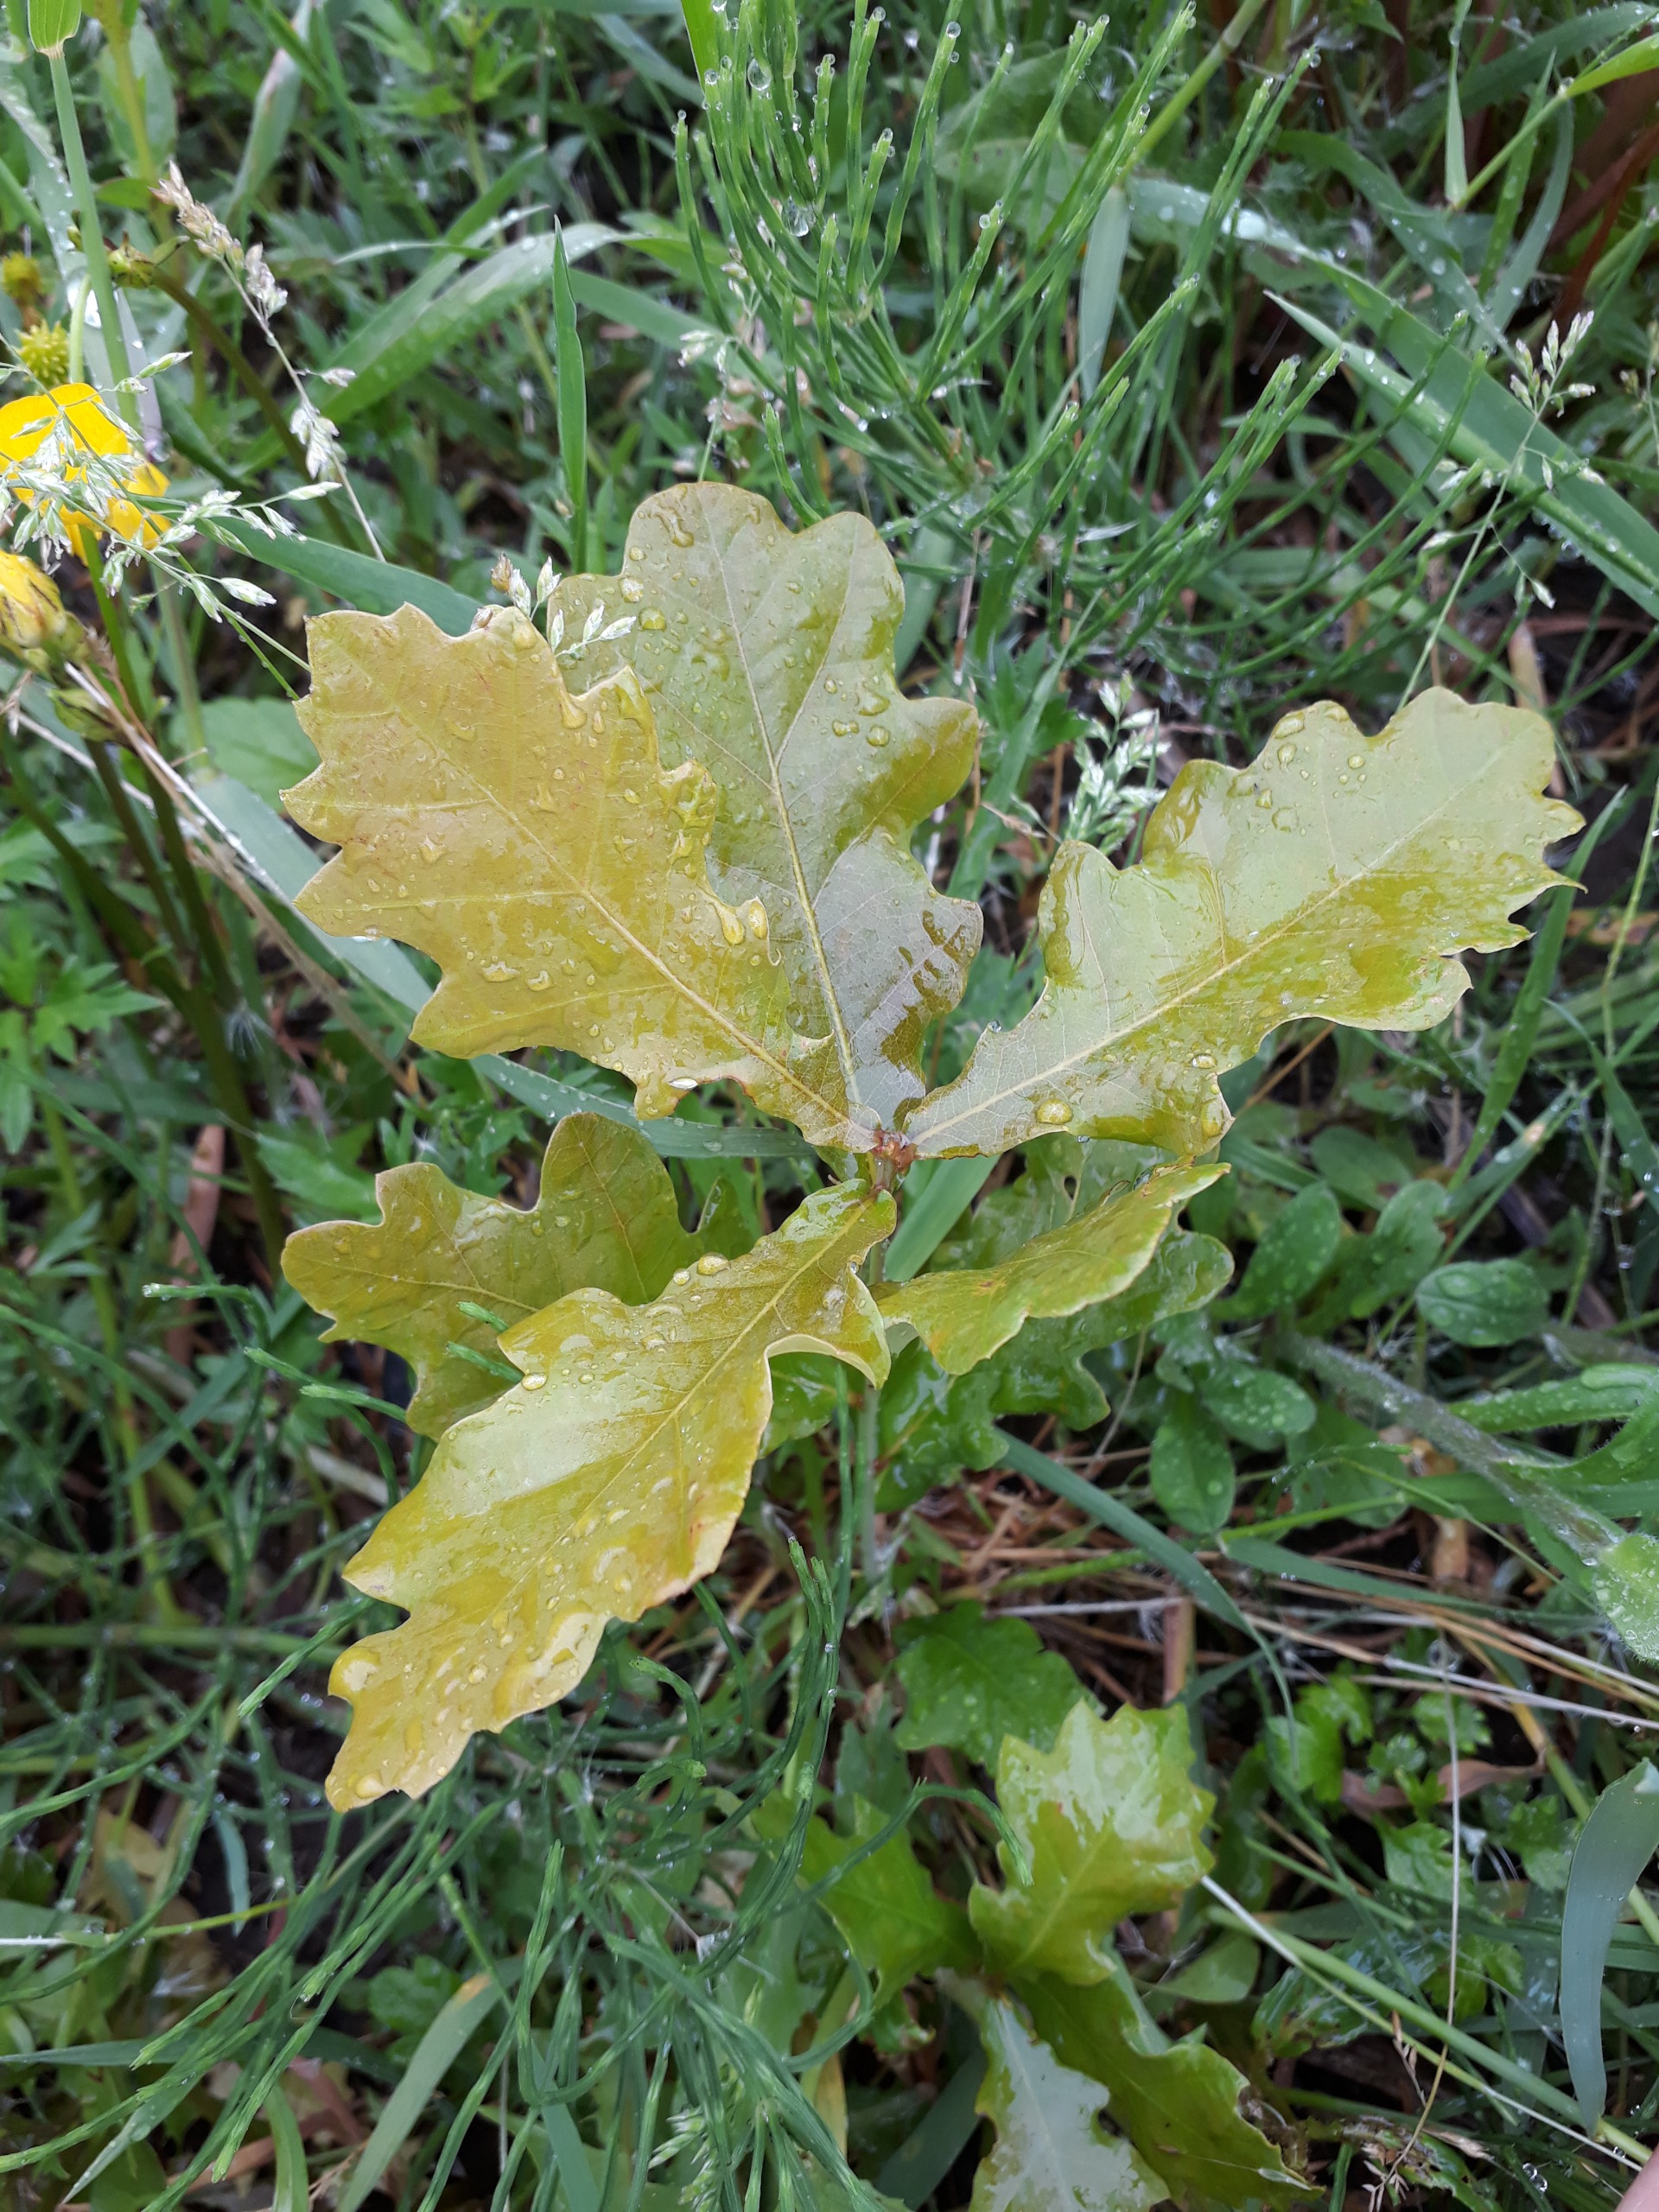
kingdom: Plantae
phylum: Tracheophyta
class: Magnoliopsida
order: Fagales
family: Fagaceae
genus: Quercus
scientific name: Quercus robur
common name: Stilk-eg/almindelig eg
